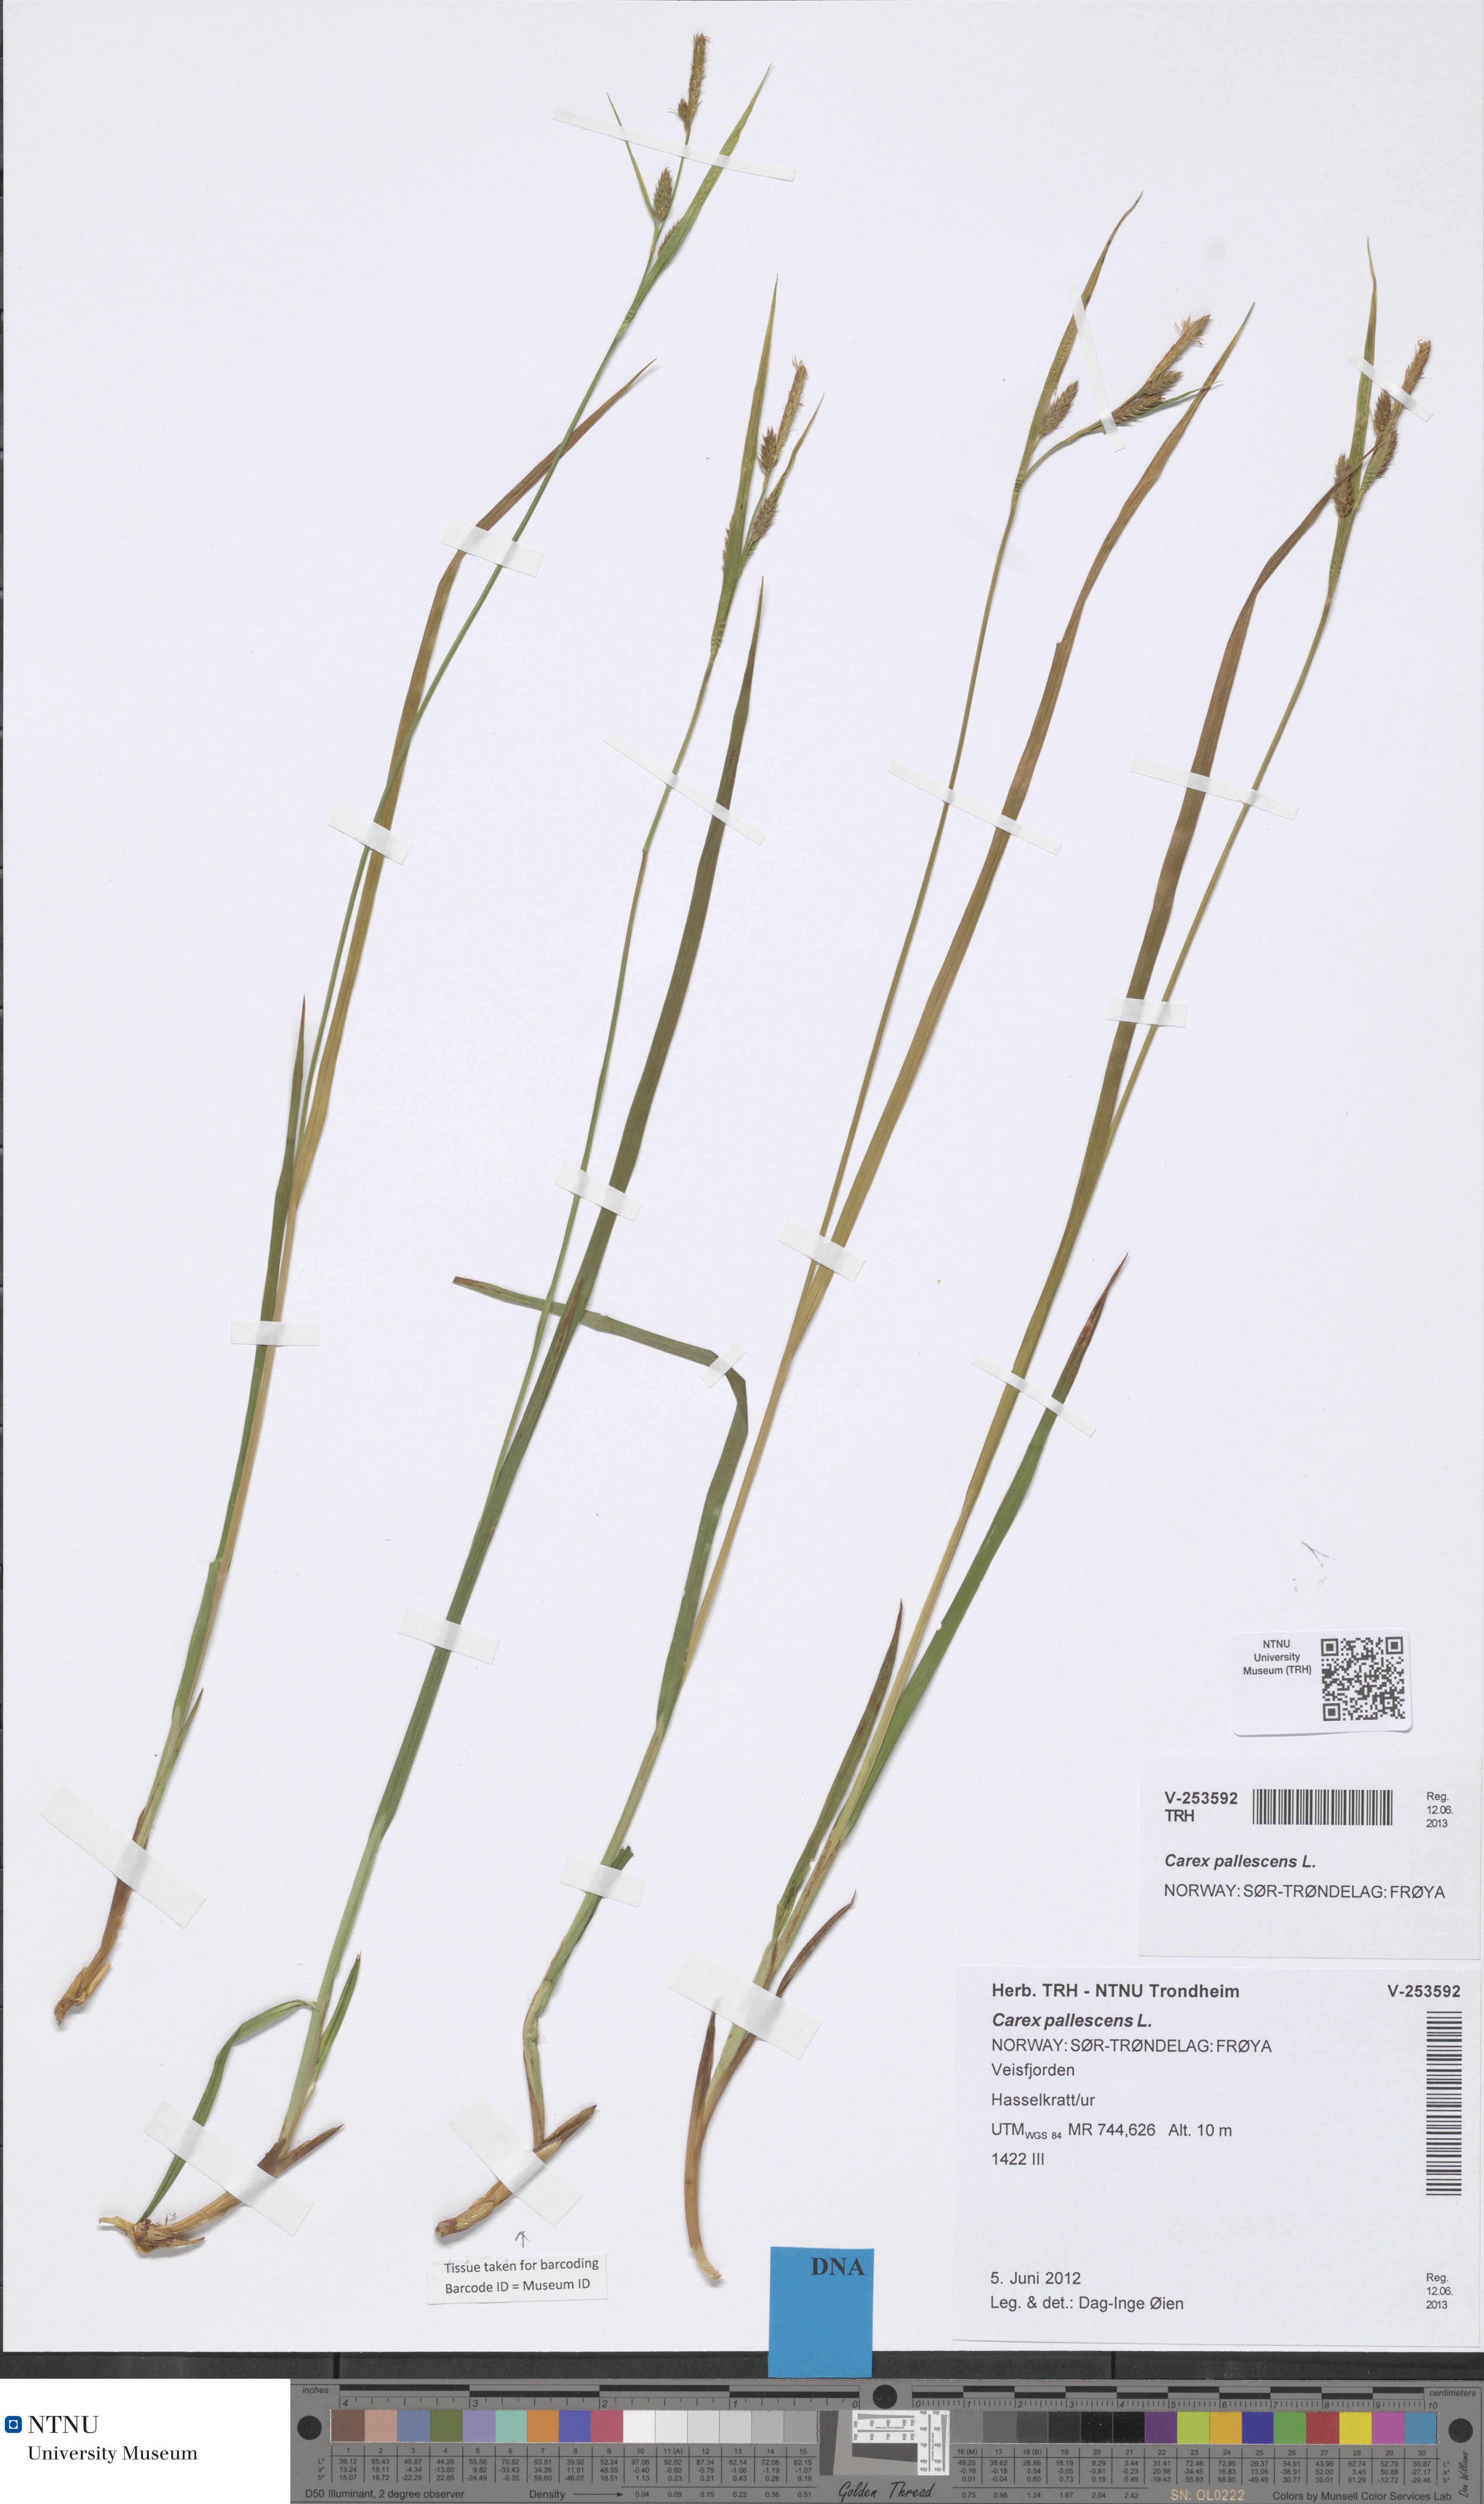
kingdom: Plantae
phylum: Tracheophyta
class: Liliopsida
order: Poales
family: Cyperaceae
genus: Carex
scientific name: Carex pallescens
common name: Pale sedge
